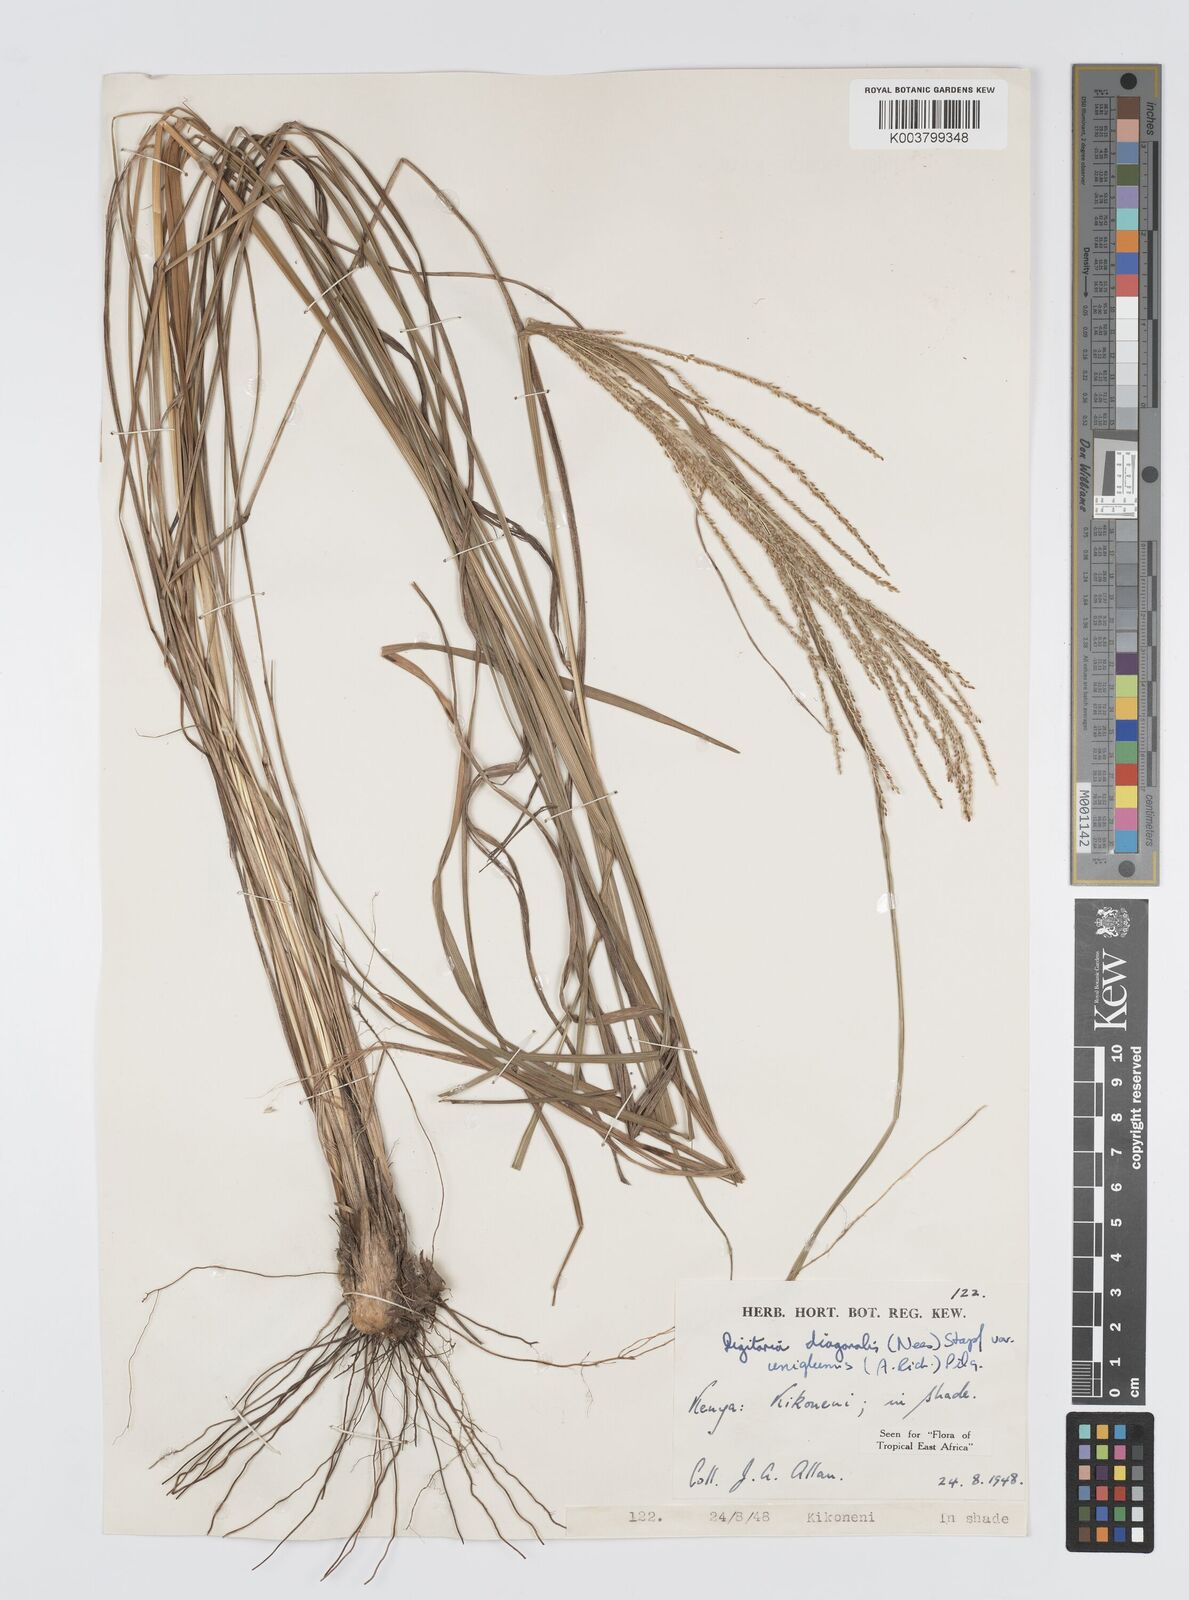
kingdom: Plantae
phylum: Tracheophyta
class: Liliopsida
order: Poales
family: Poaceae
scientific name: Poaceae
